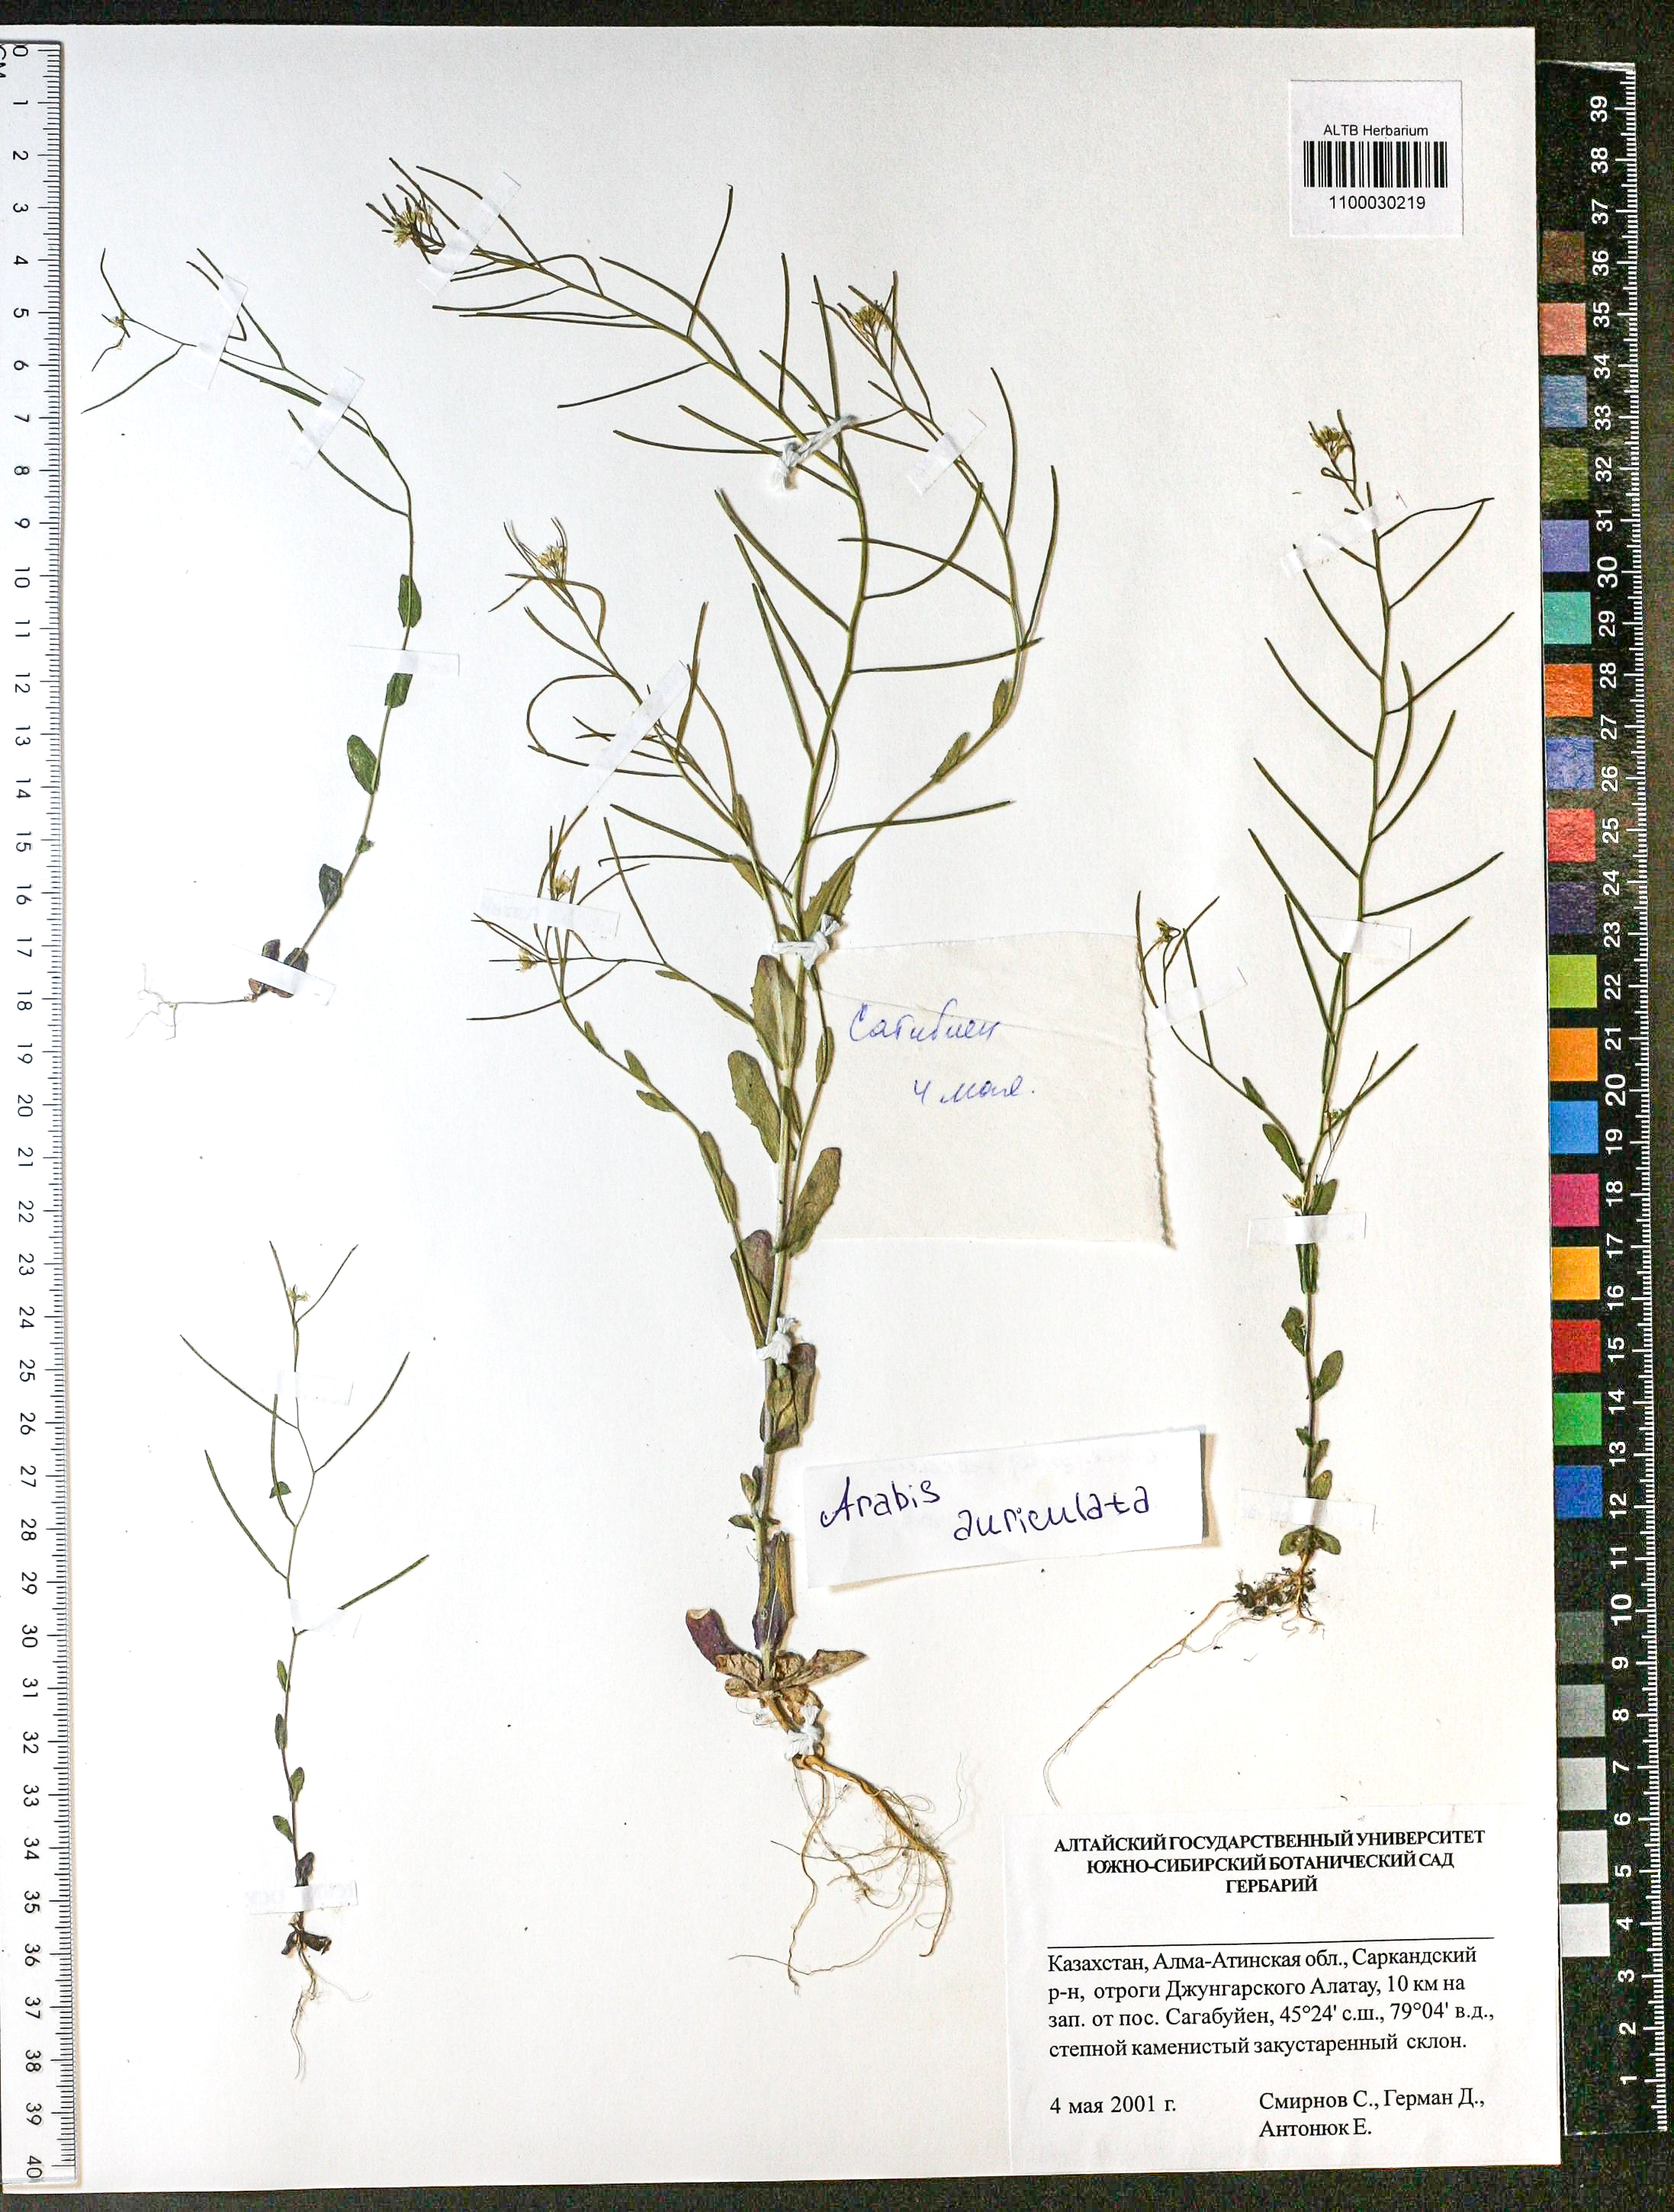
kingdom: Plantae
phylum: Tracheophyta
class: Magnoliopsida
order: Brassicales
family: Brassicaceae
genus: Arabis
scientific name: Arabis auriculata
